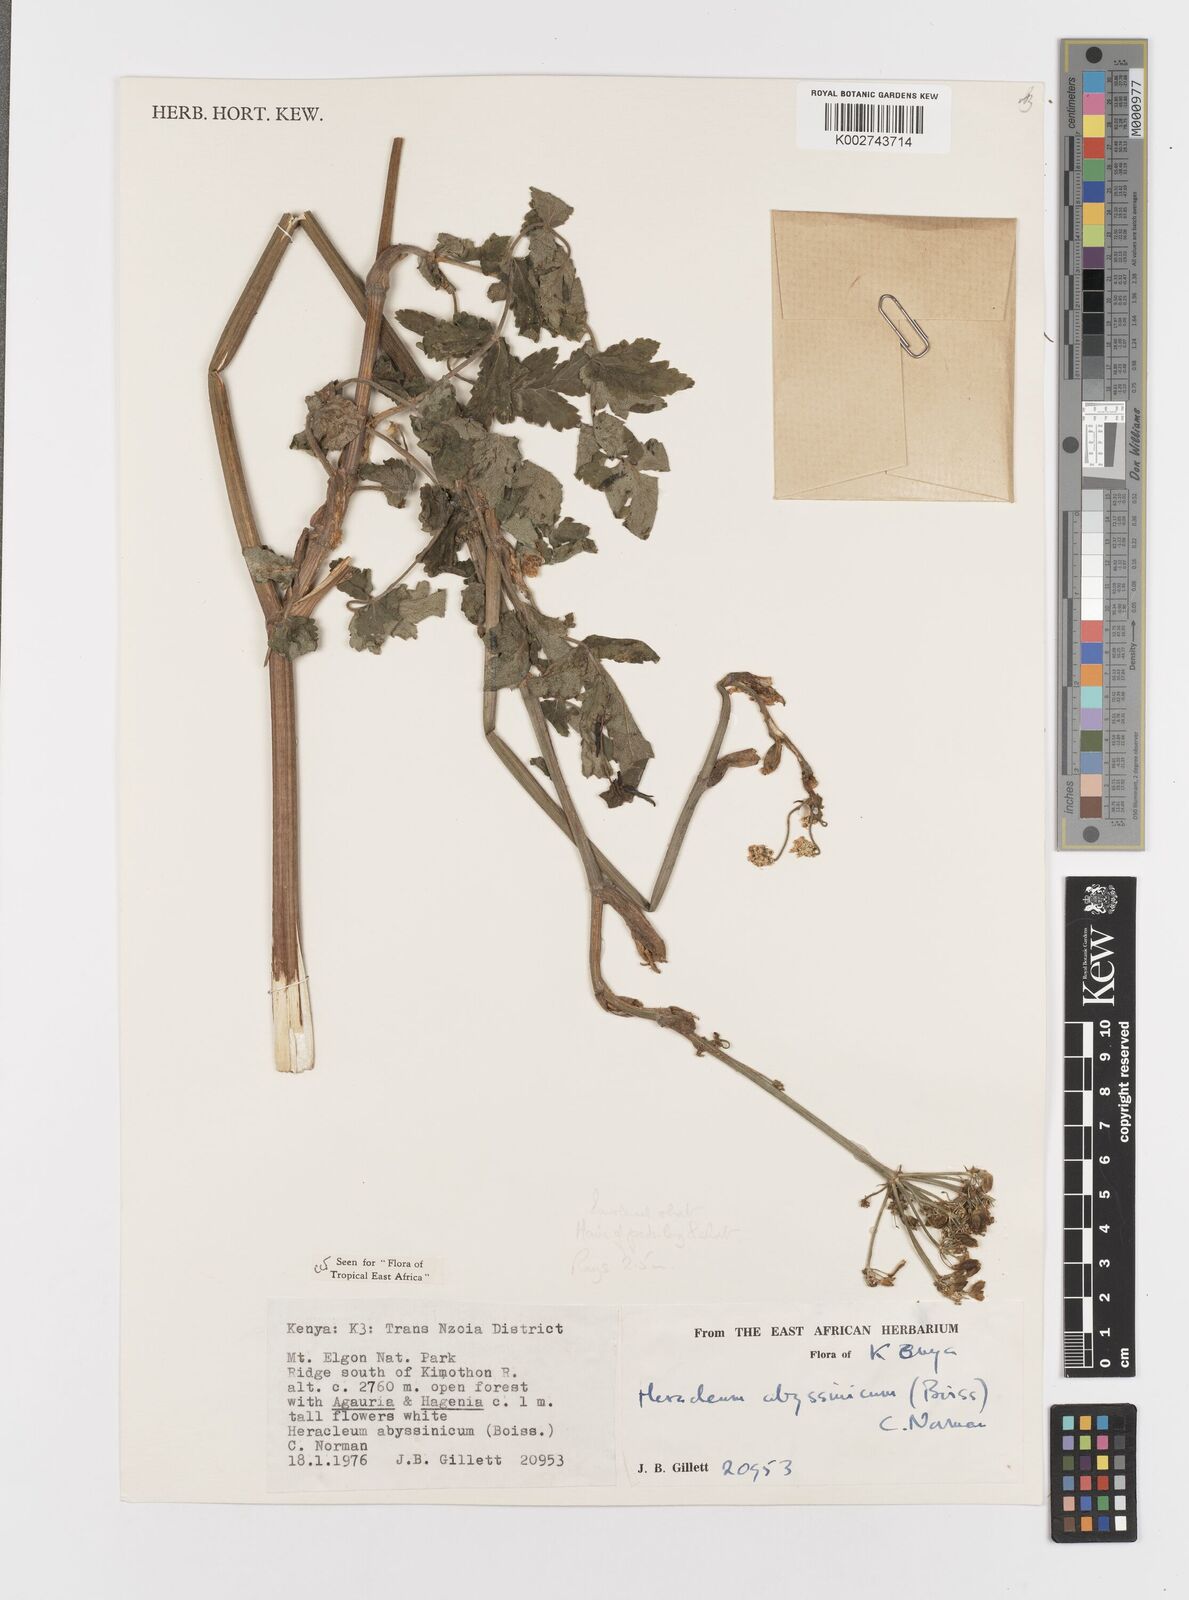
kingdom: Plantae
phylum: Tracheophyta
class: Magnoliopsida
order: Apiales
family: Apiaceae
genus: Heracleum
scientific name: Heracleum abyssinicum
